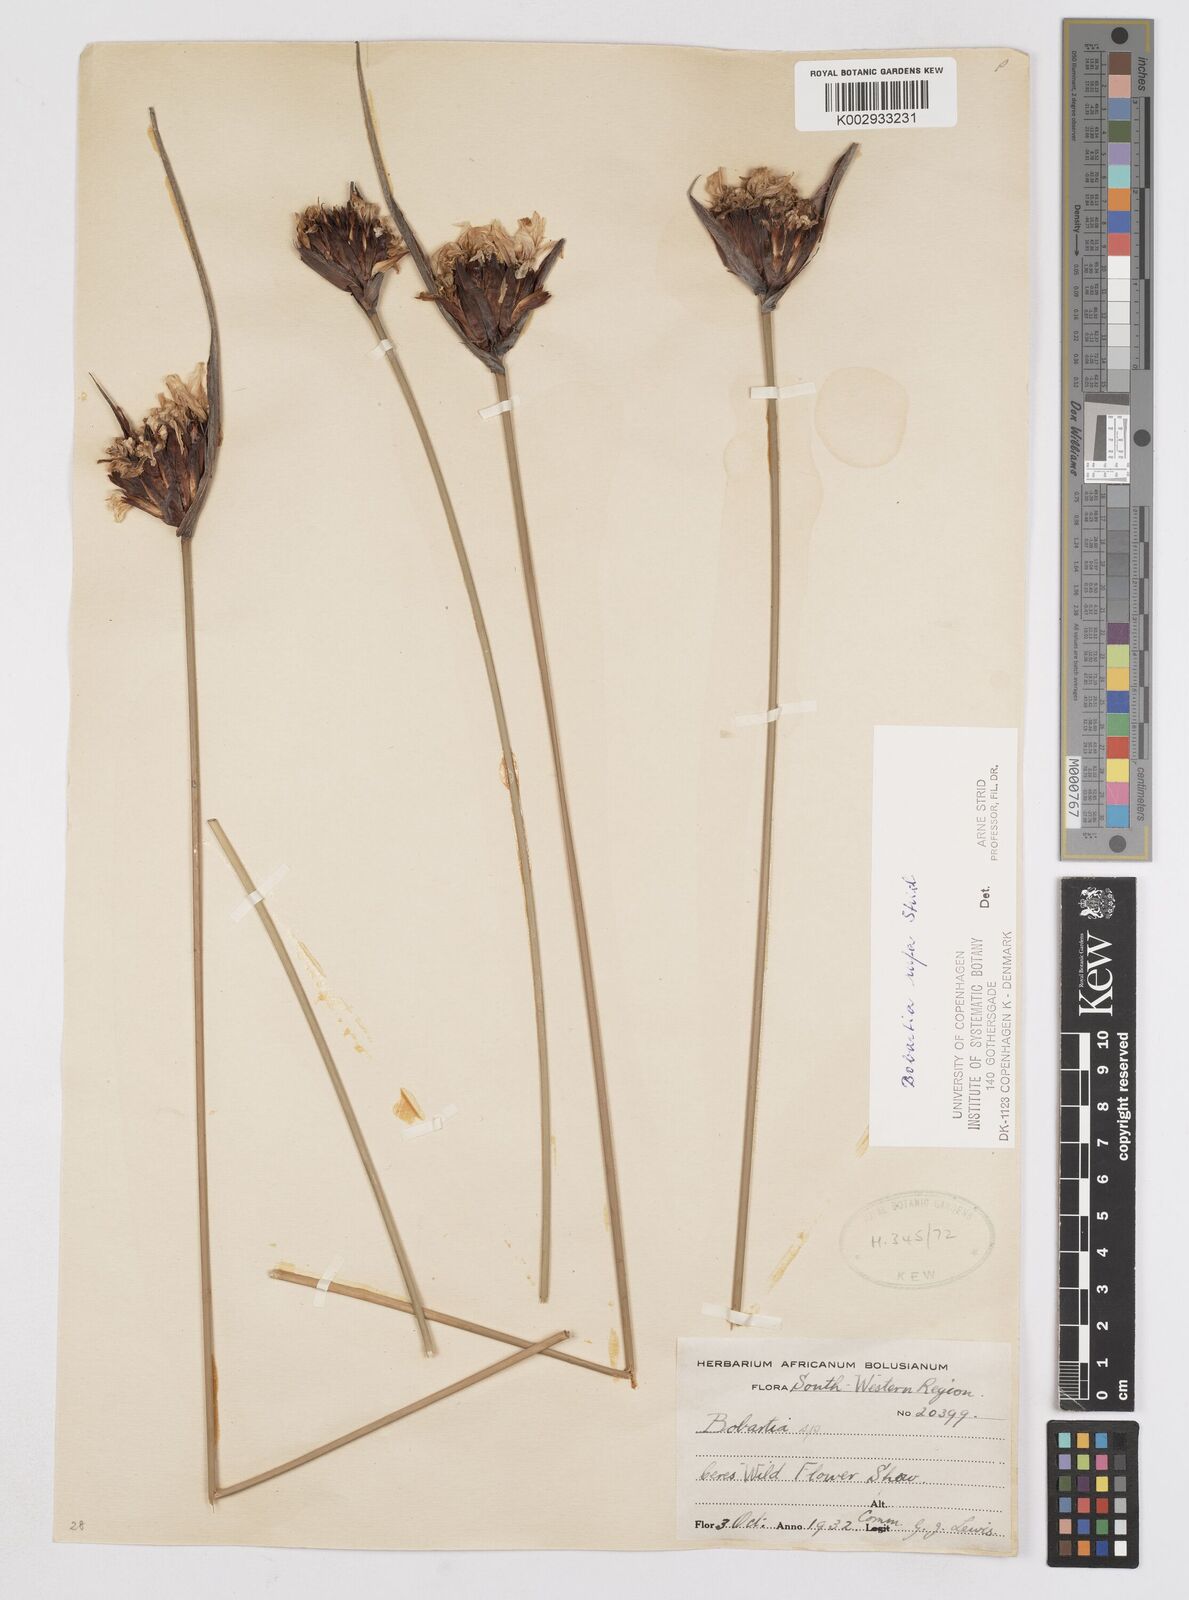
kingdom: Plantae
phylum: Tracheophyta
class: Liliopsida
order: Asparagales
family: Iridaceae
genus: Bobartia
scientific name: Bobartia rufa
